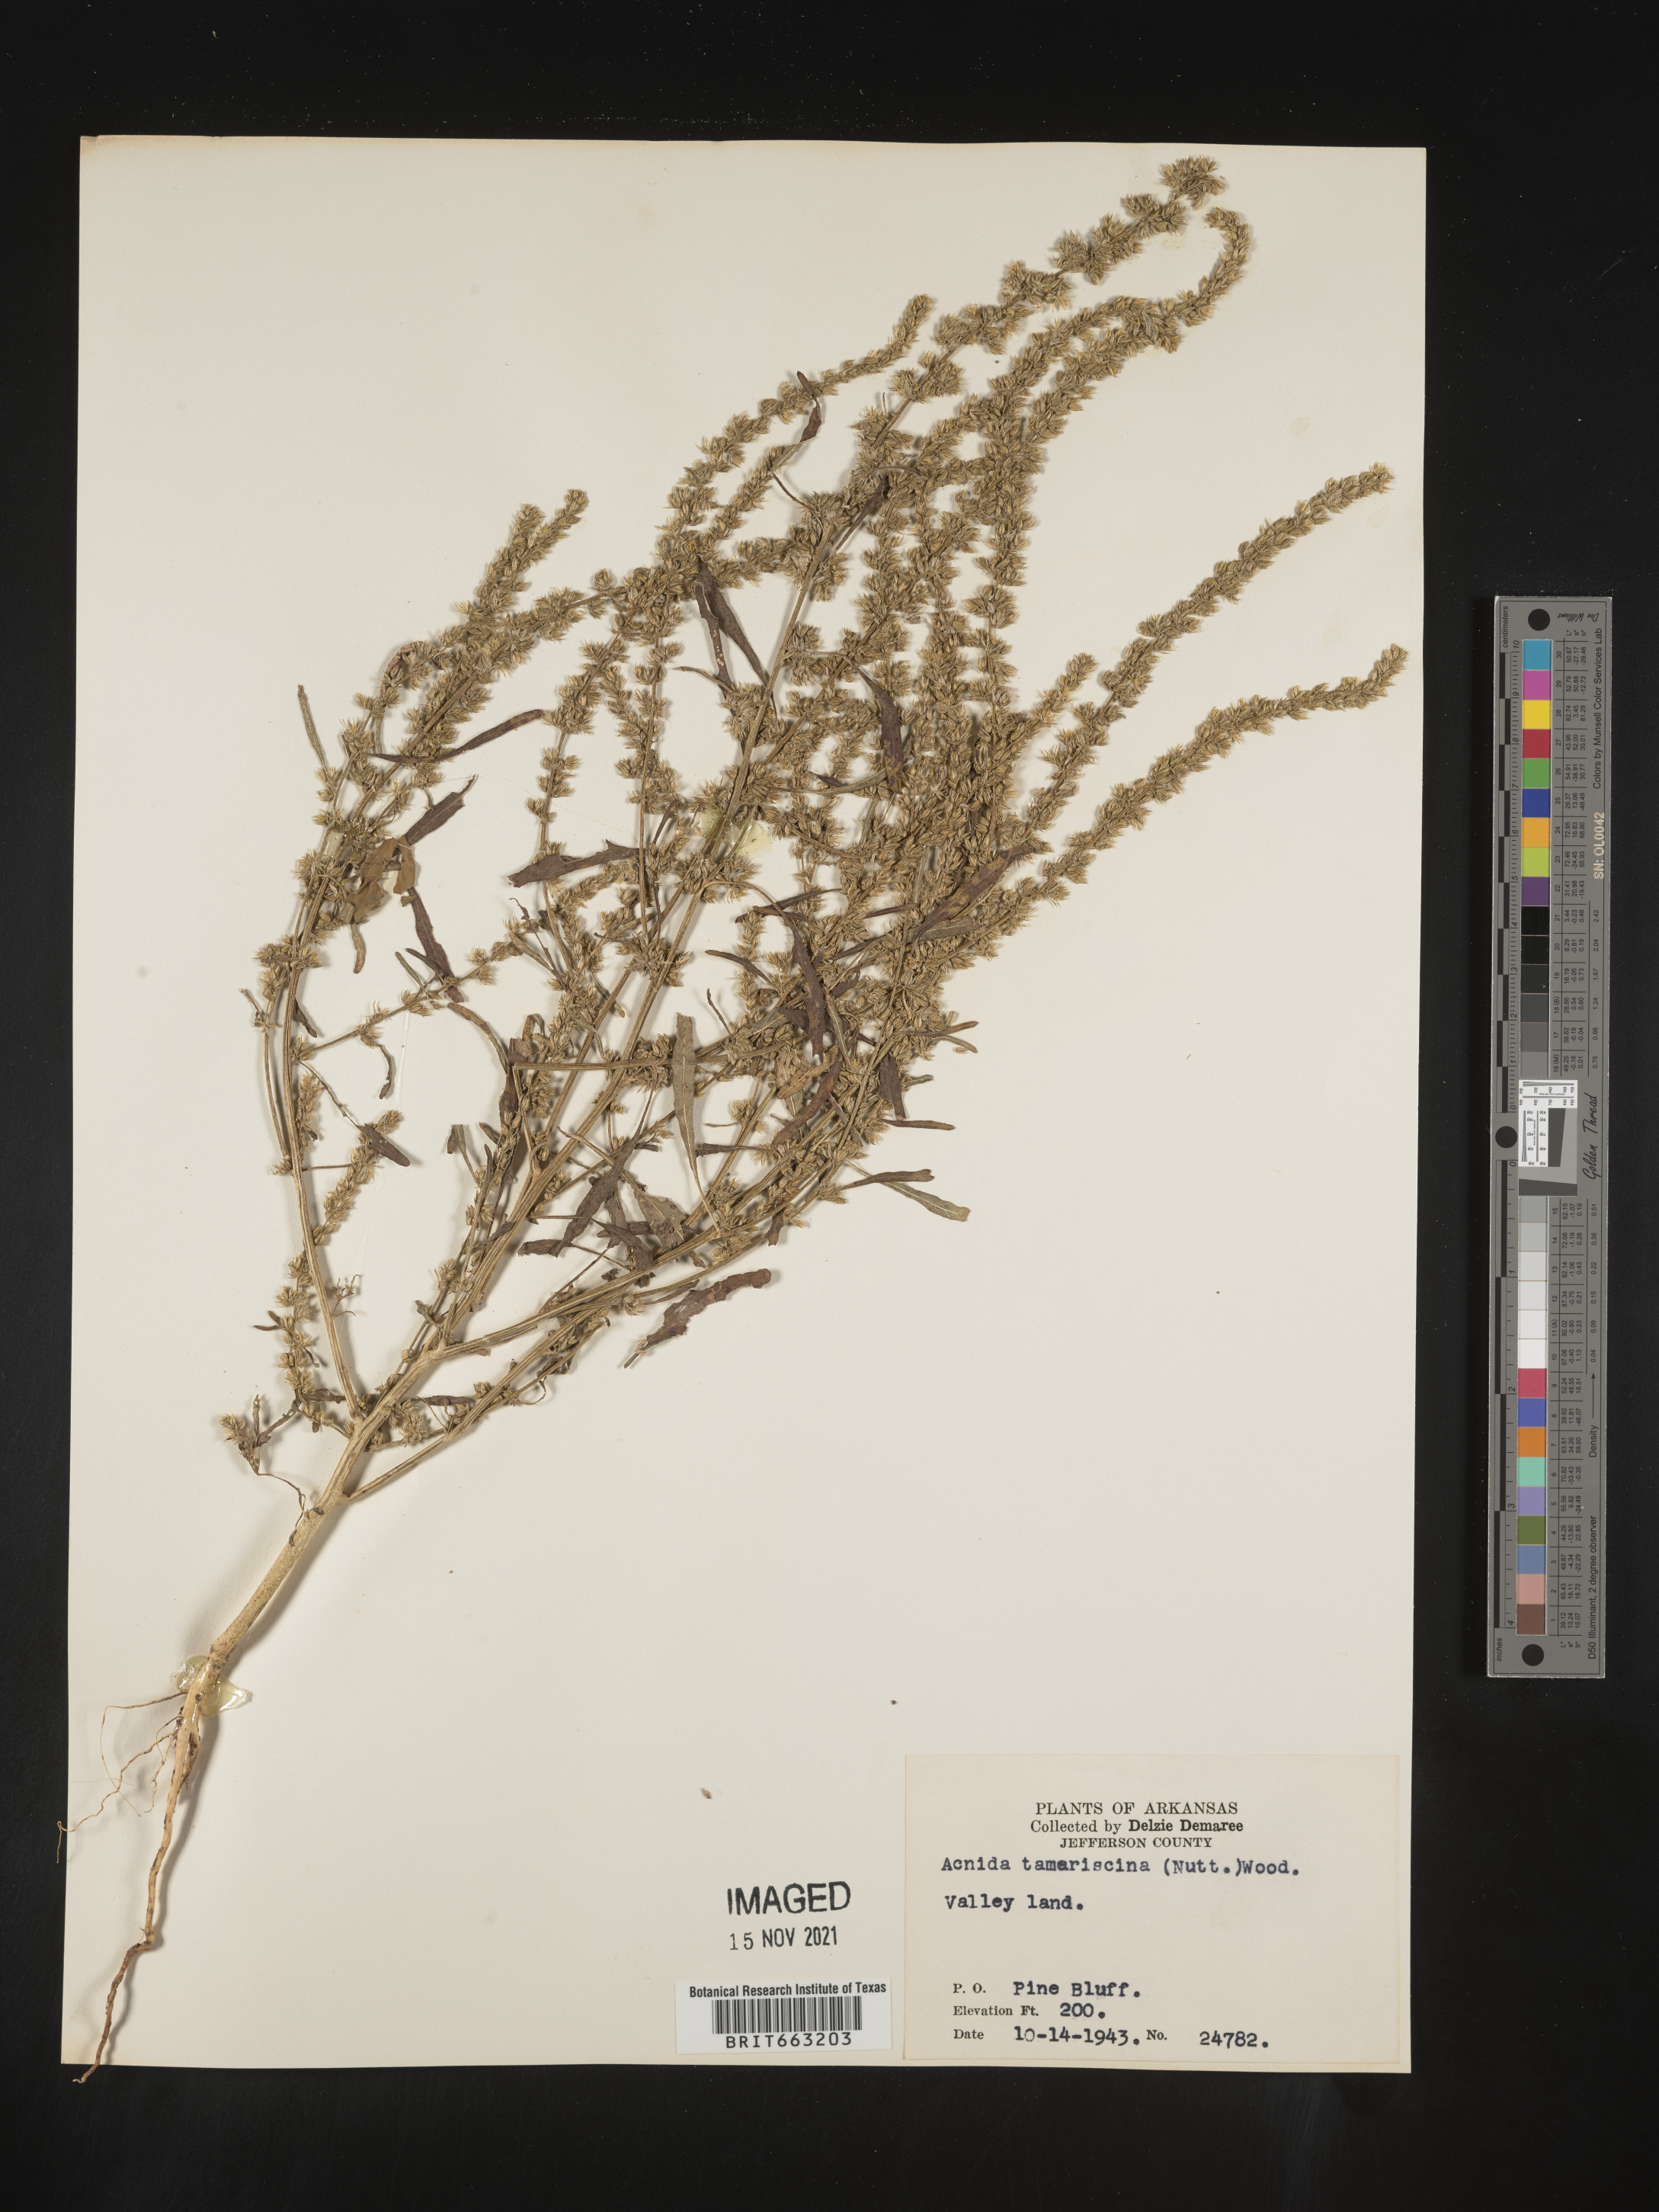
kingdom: Plantae
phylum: Tracheophyta
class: Magnoliopsida
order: Caryophyllales
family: Amaranthaceae
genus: Amaranthus
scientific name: Amaranthus tamariscinus
